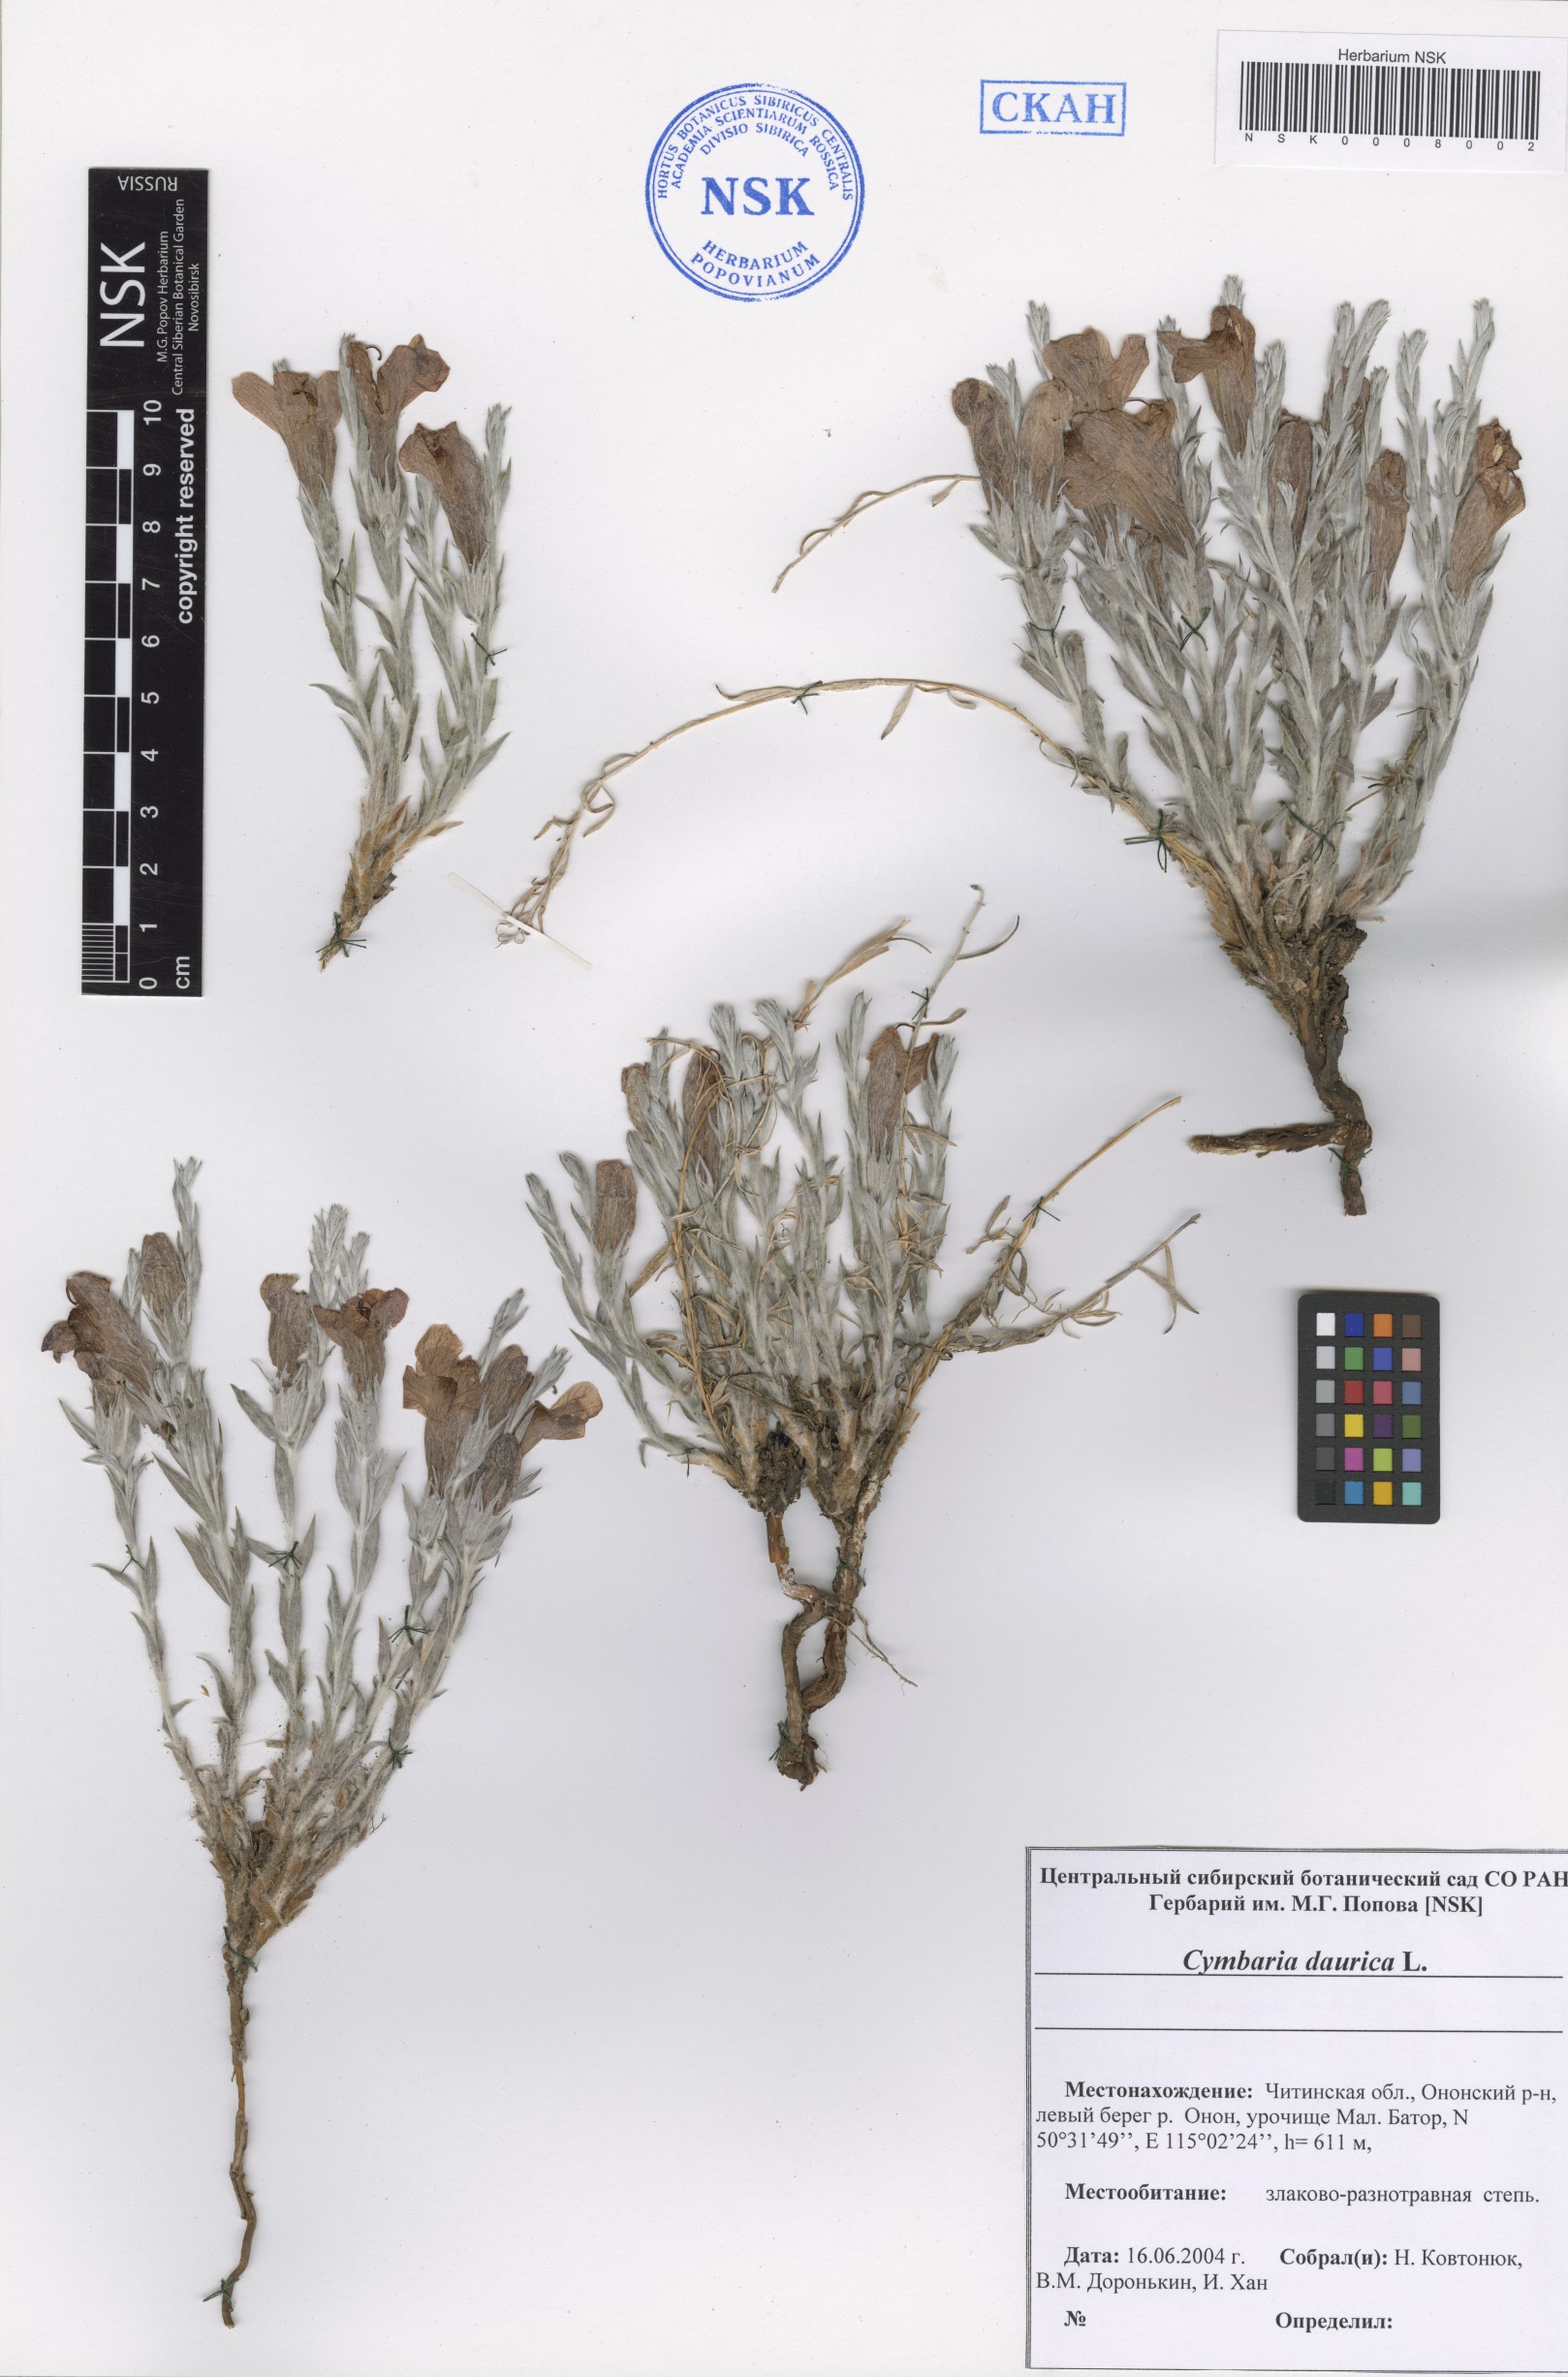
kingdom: Plantae
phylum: Tracheophyta
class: Magnoliopsida
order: Lamiales
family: Orobanchaceae
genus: Cymbaria
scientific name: Cymbaria daurica
